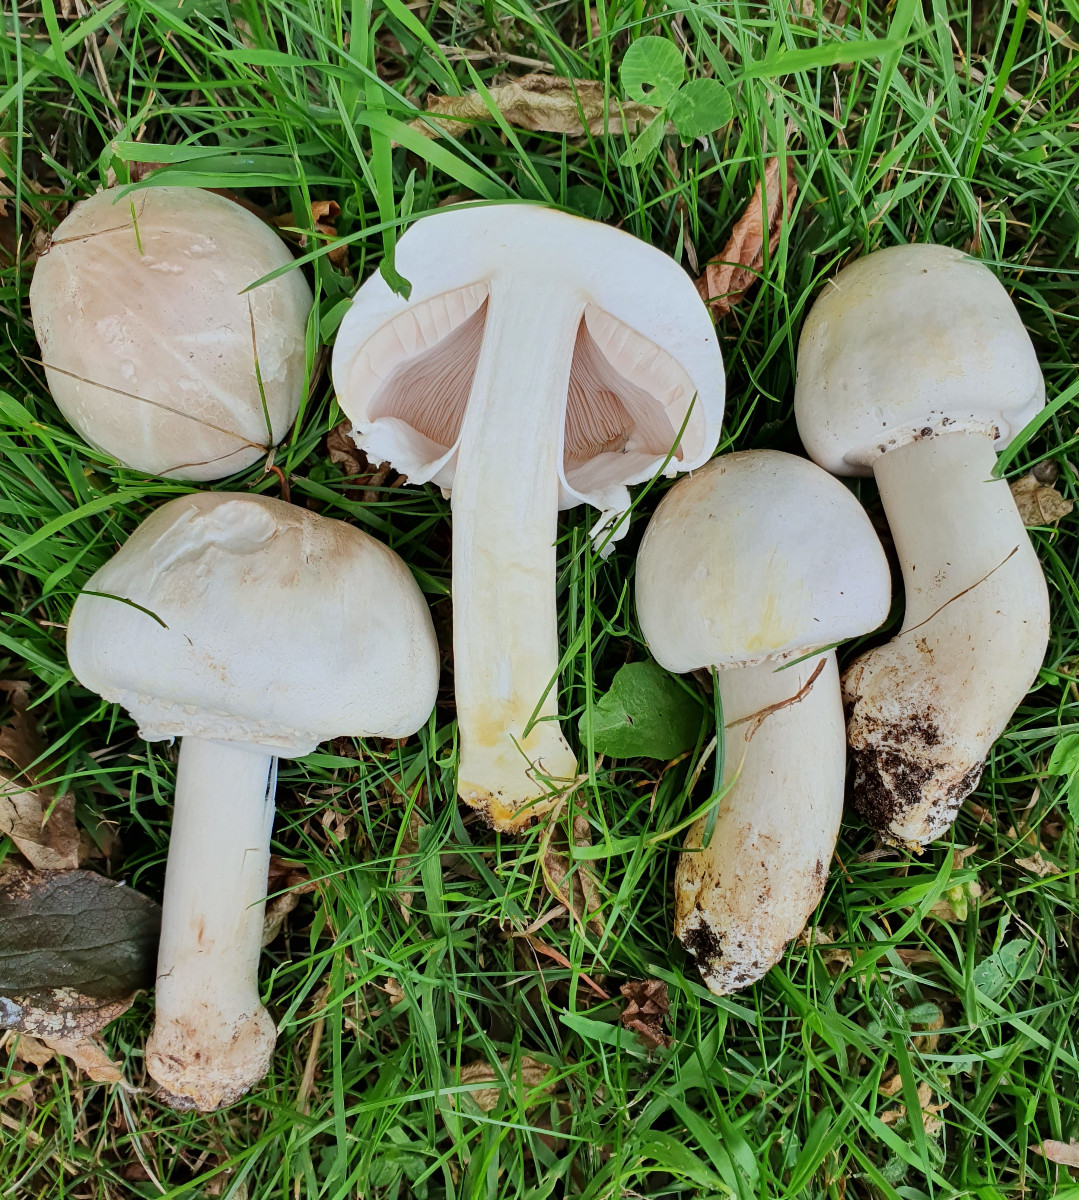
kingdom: Fungi
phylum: Basidiomycota
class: Agaricomycetes
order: Agaricales
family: Agaricaceae
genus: Agaricus
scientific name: Agaricus xanthodermus
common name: karbol-champignon
